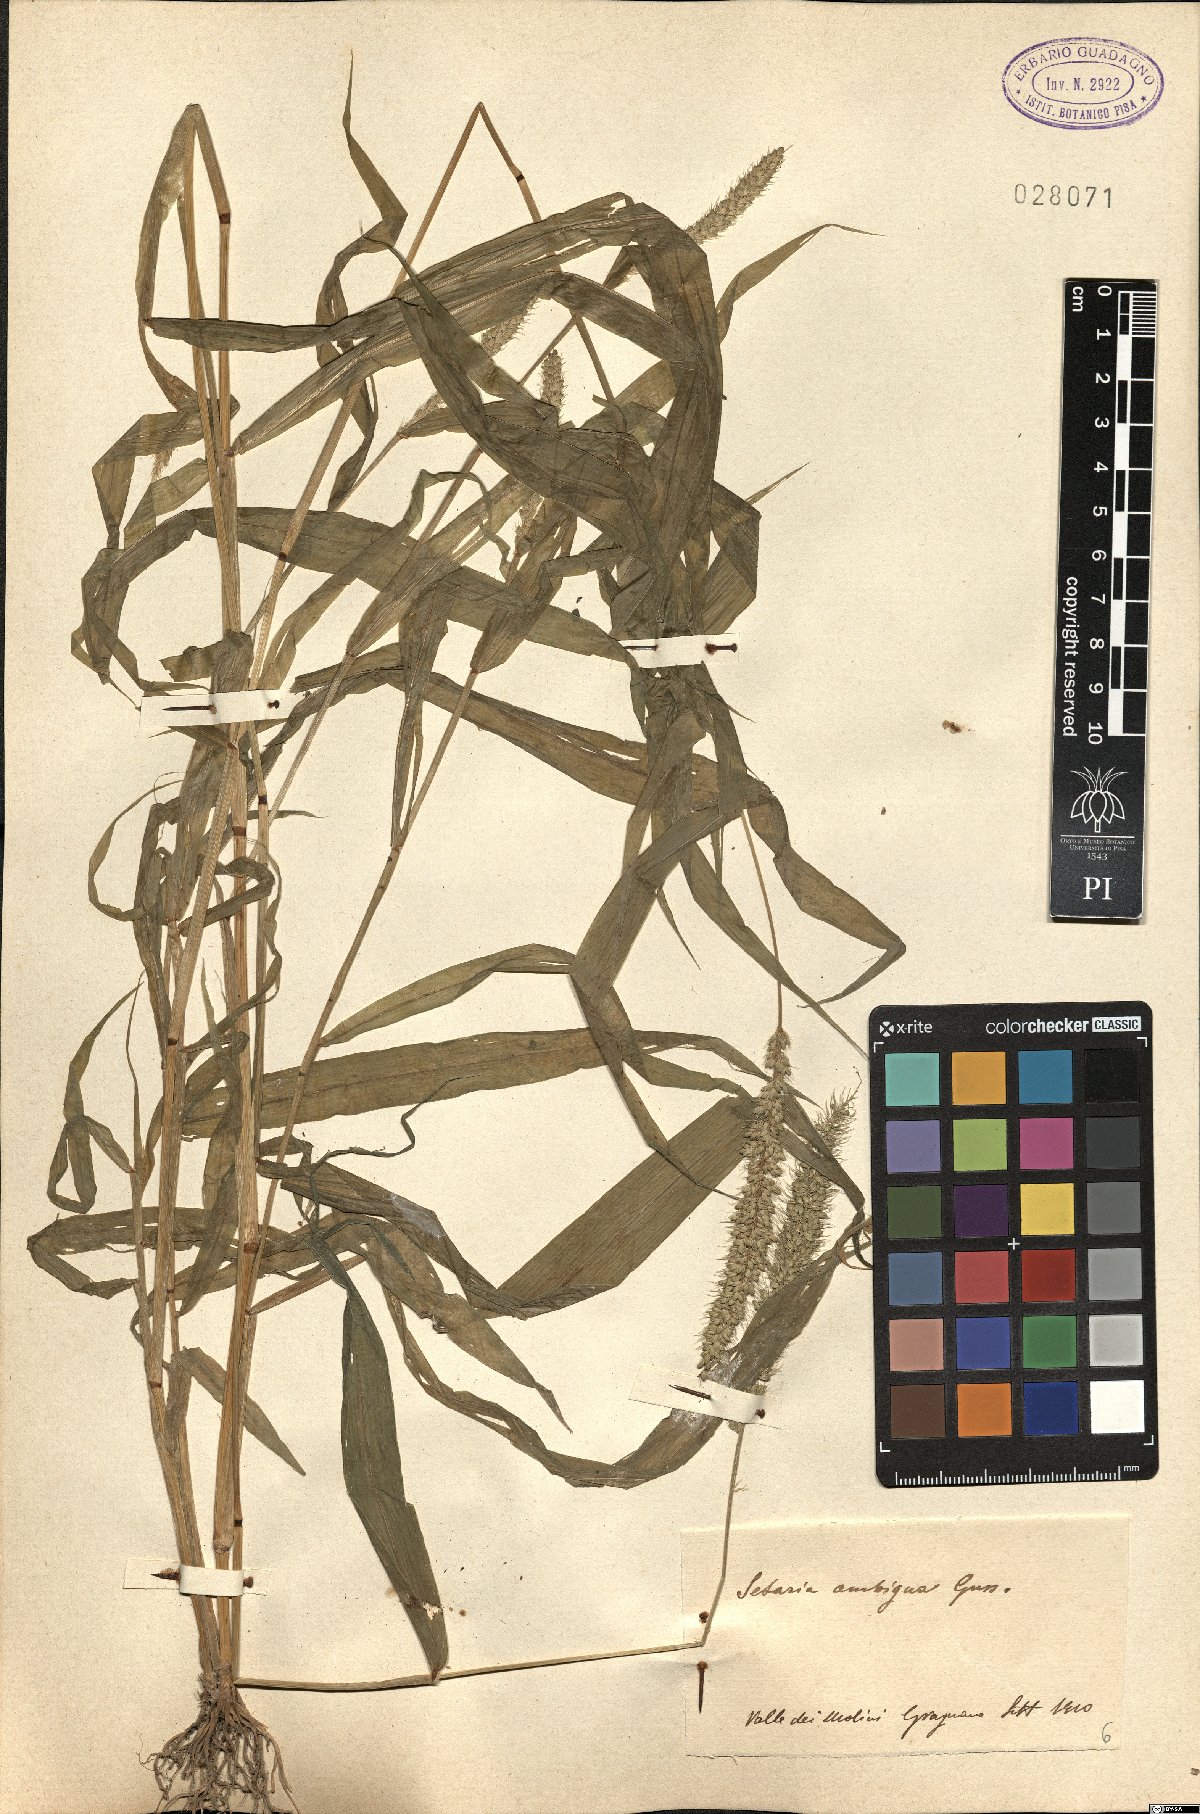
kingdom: Plantae
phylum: Tracheophyta
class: Liliopsida
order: Poales
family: Poaceae
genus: Setaria
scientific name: Setaria verticillata
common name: Hooked bristlegrass
